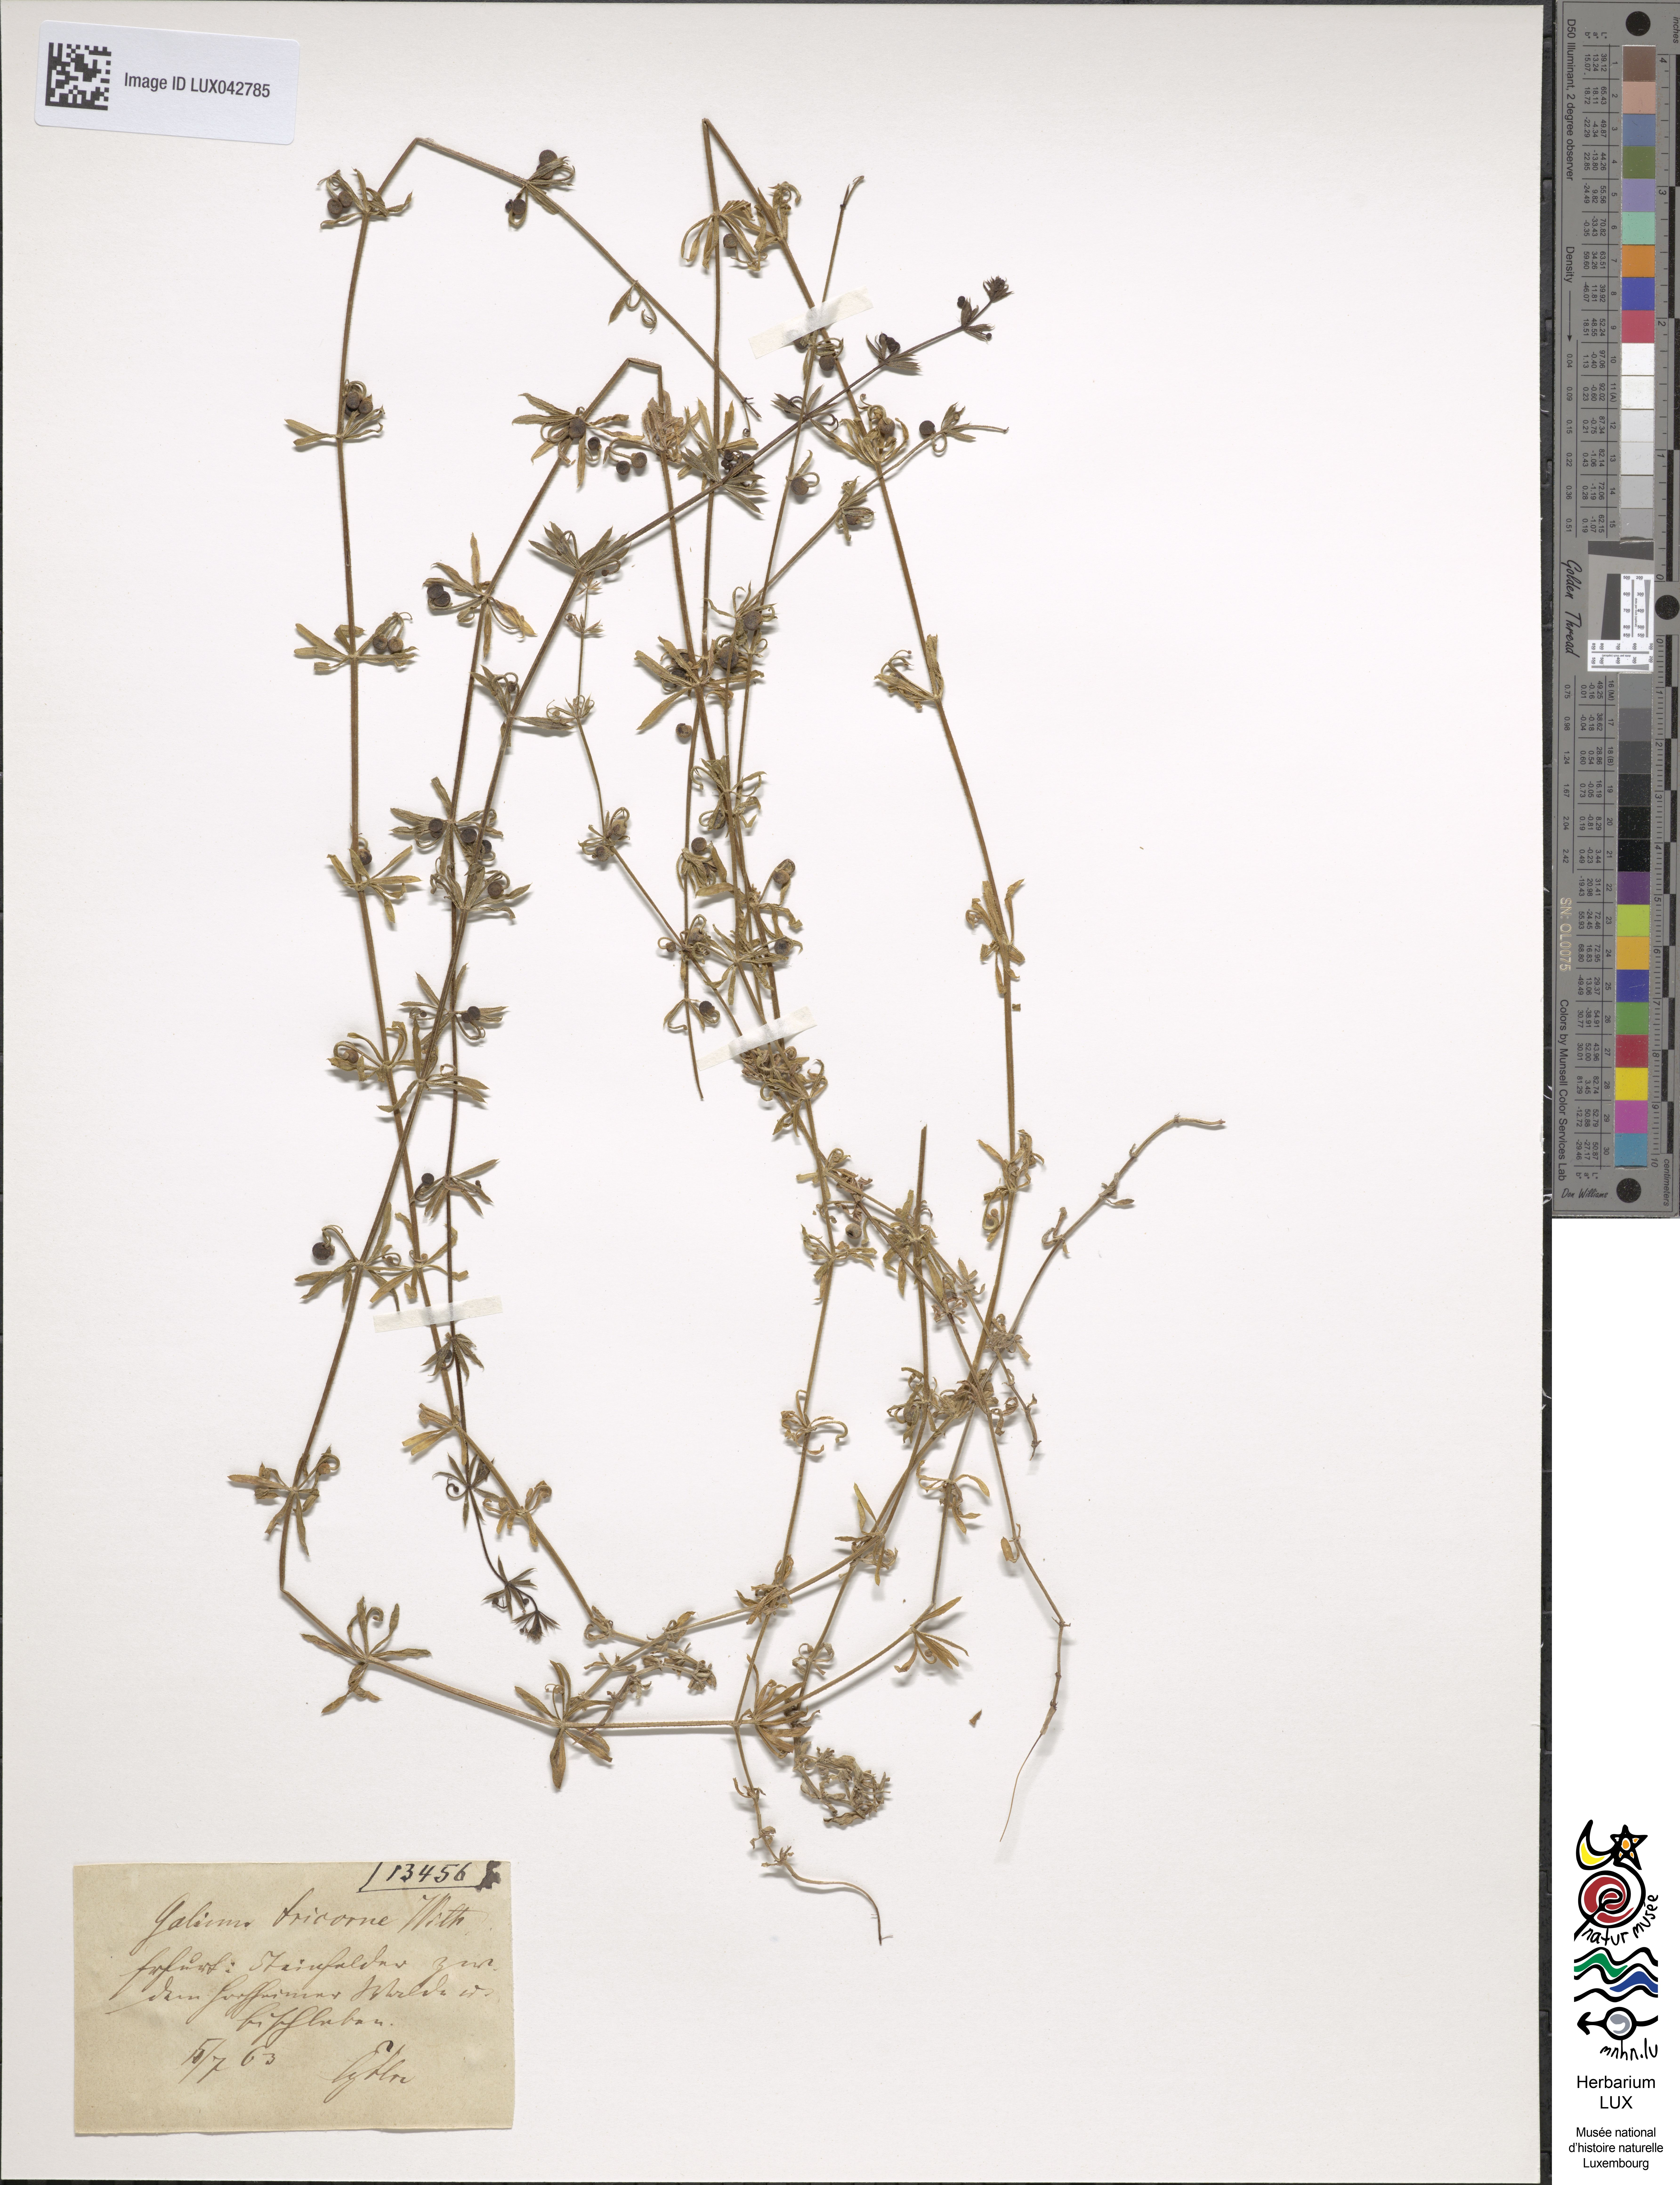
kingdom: Plantae
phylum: Tracheophyta
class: Magnoliopsida
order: Gentianales
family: Rubiaceae
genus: Galium
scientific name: Galium tricornutum
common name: Corn cleavers
